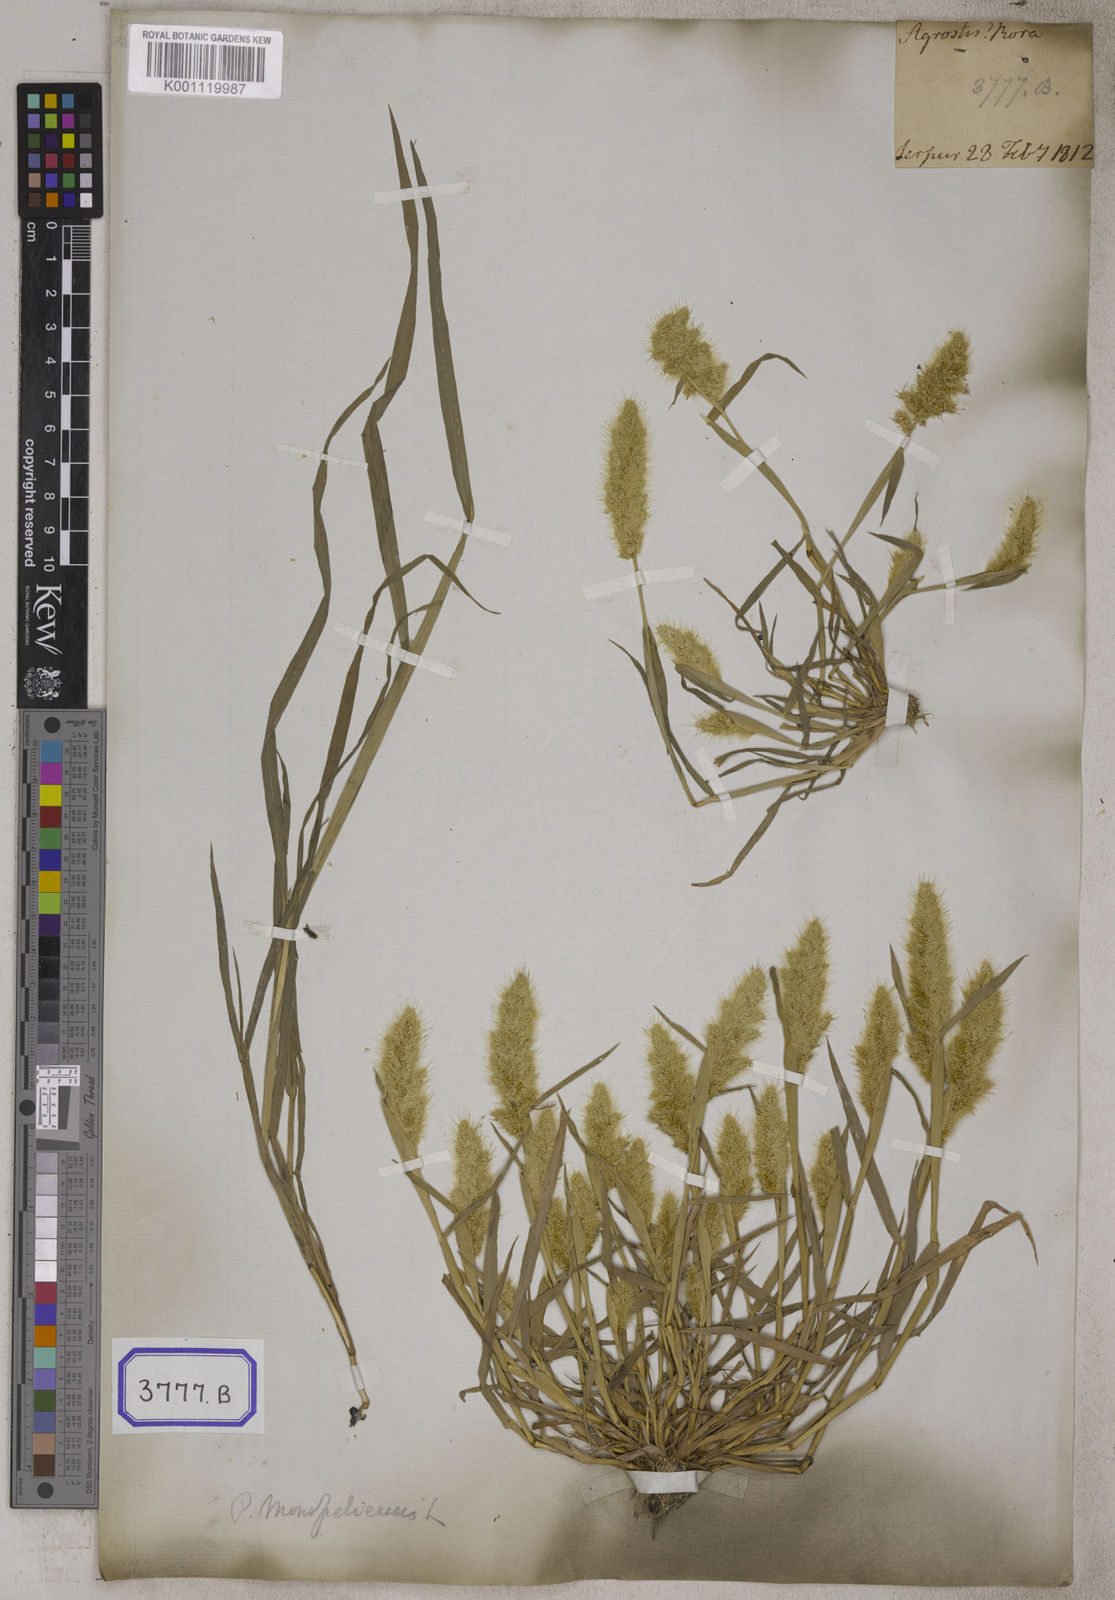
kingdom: Plantae
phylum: Tracheophyta
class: Liliopsida
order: Poales
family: Poaceae
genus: Polypogon
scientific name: Polypogon
